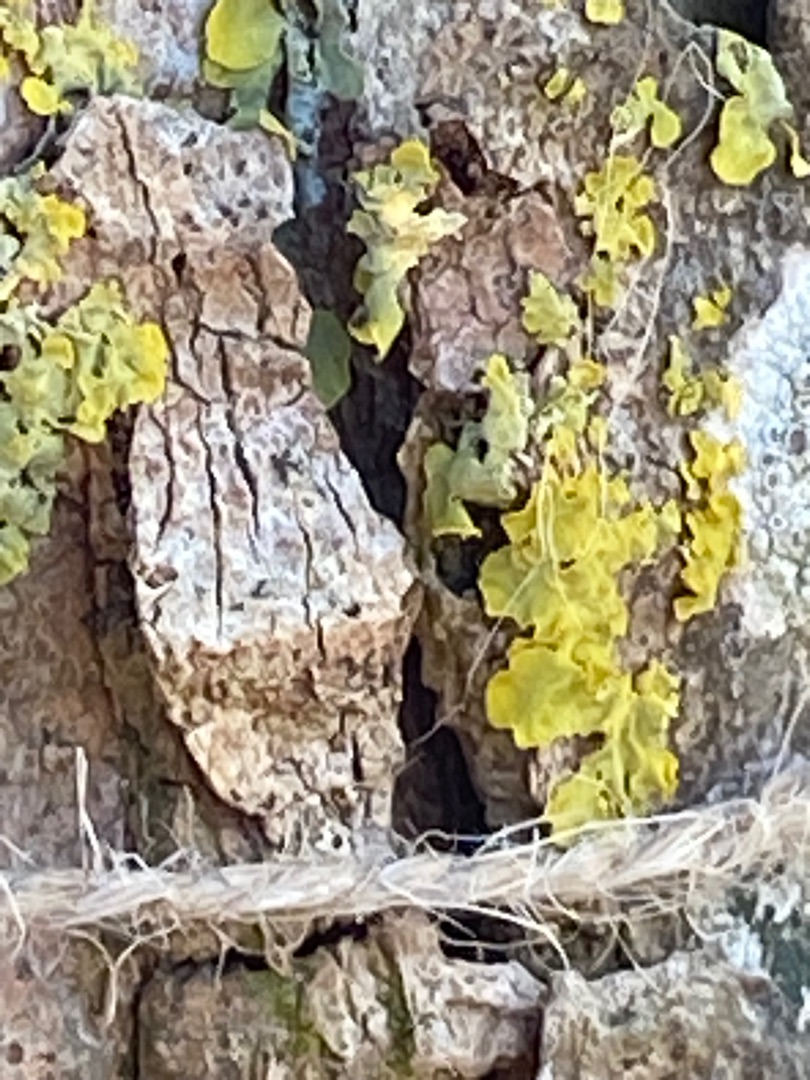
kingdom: Fungi
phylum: Ascomycota
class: Lecanoromycetes
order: Teloschistales
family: Teloschistaceae
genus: Xanthoria
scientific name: Xanthoria parietina
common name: Almindelig væggelav
